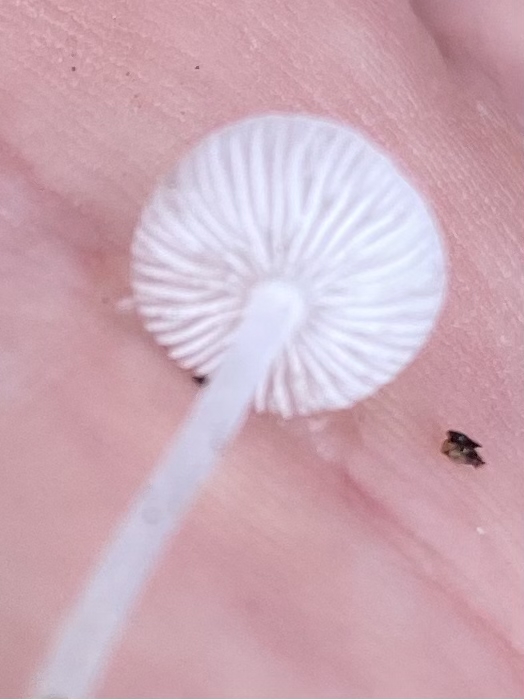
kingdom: Fungi
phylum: Basidiomycota
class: Agaricomycetes
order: Agaricales
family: Mycenaceae
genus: Hemimycena
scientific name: Hemimycena
